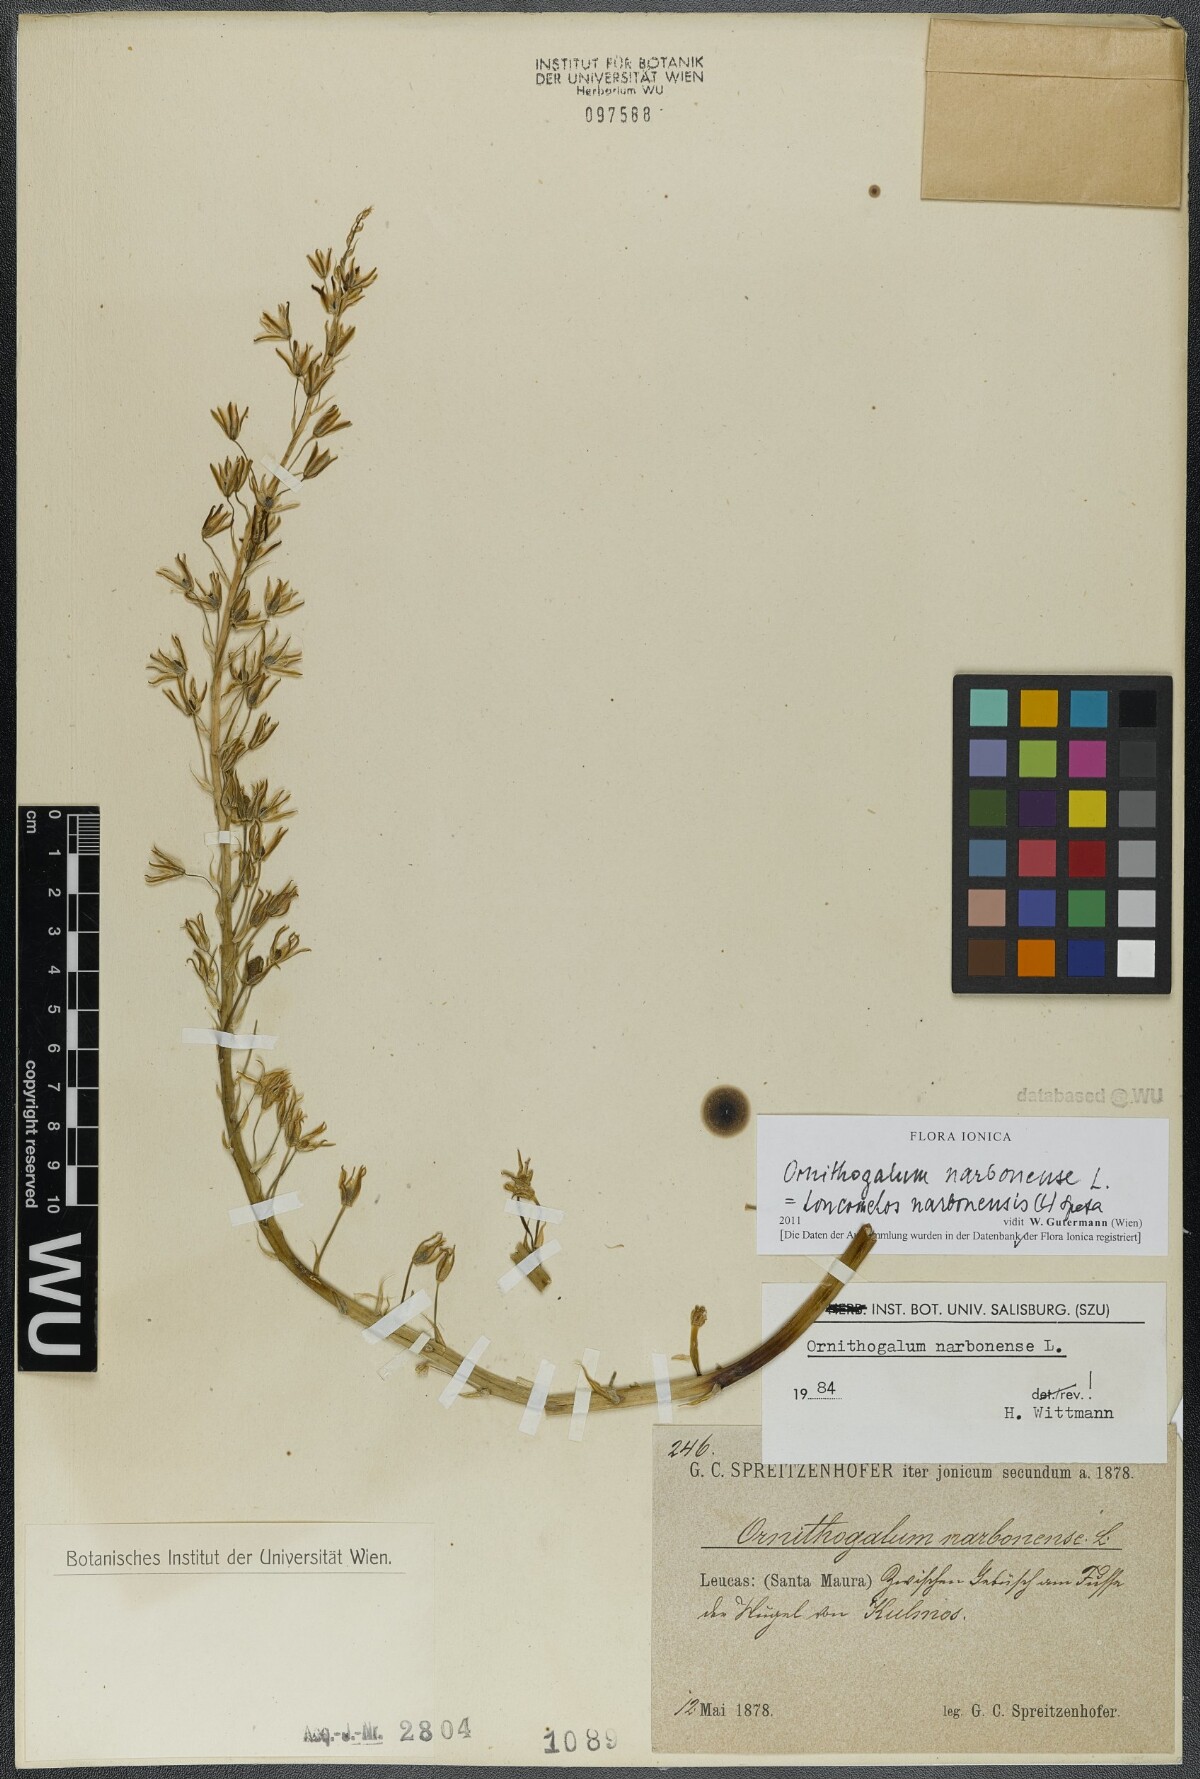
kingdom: Plantae
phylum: Tracheophyta
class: Liliopsida
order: Asparagales
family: Asparagaceae
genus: Ornithogalum
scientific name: Ornithogalum narbonense
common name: Bath-asparagus
